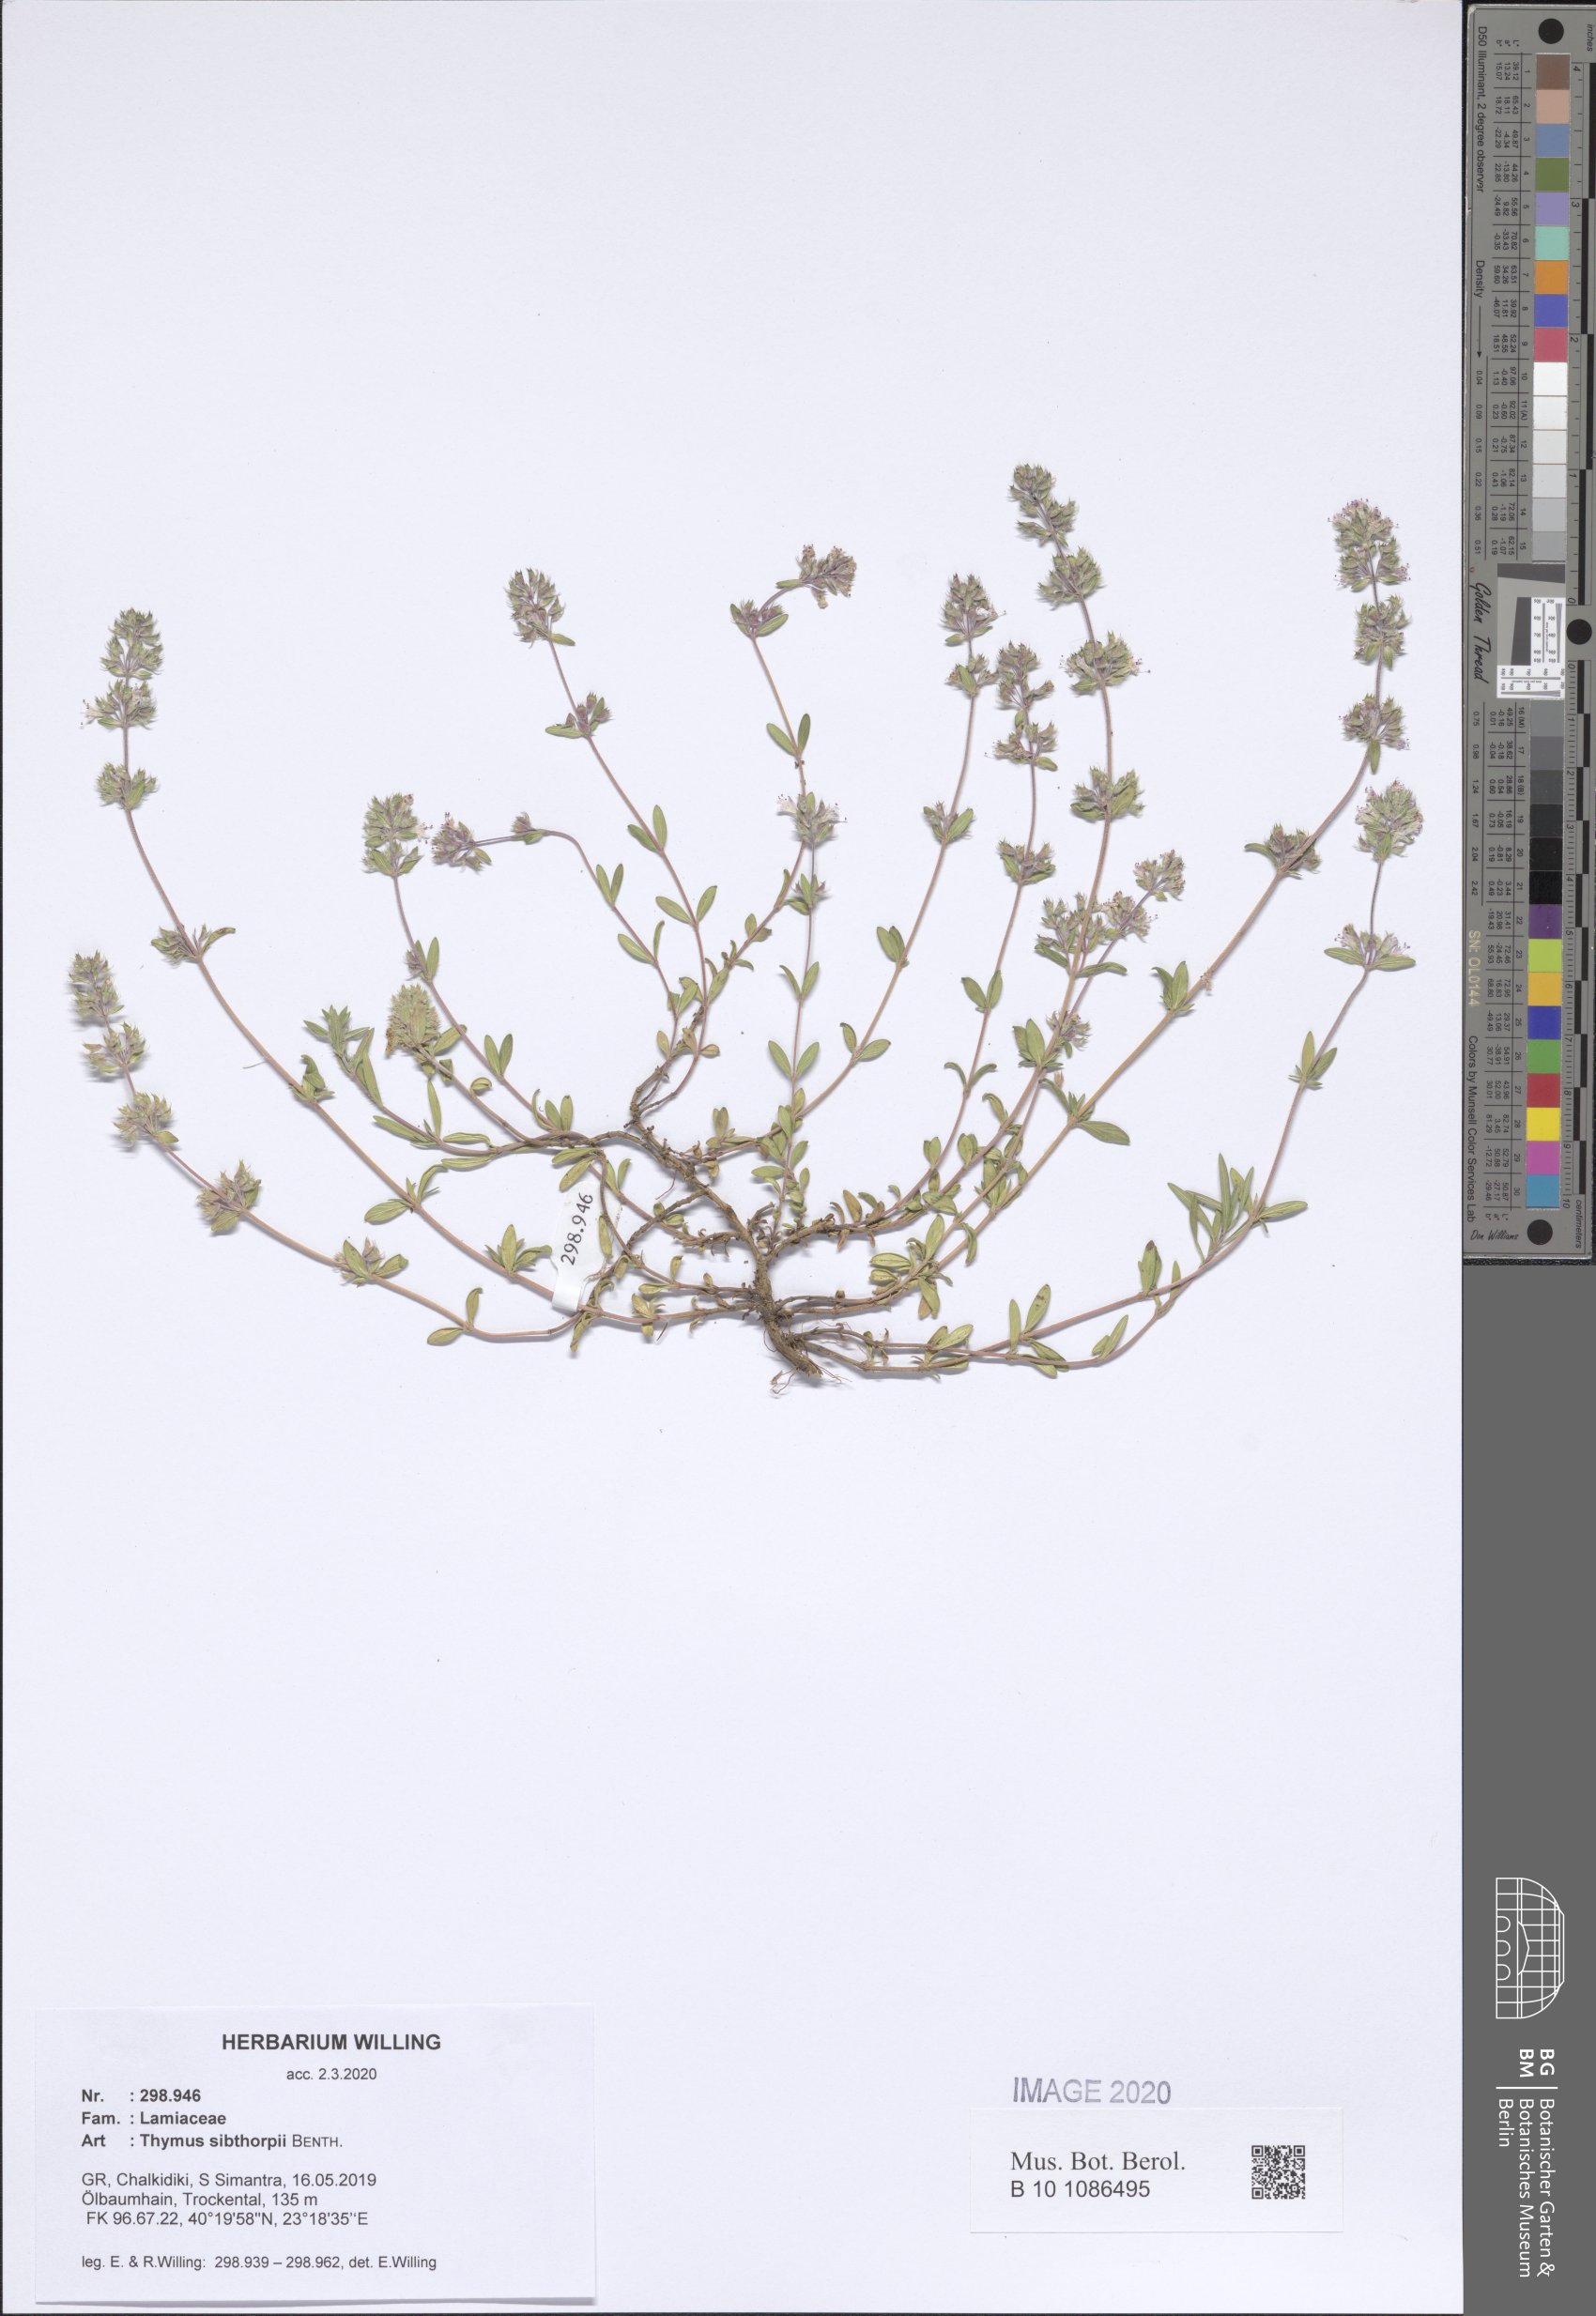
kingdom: Plantae
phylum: Tracheophyta
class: Magnoliopsida
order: Lamiales
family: Lamiaceae
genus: Thymus
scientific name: Thymus sibthorpii
